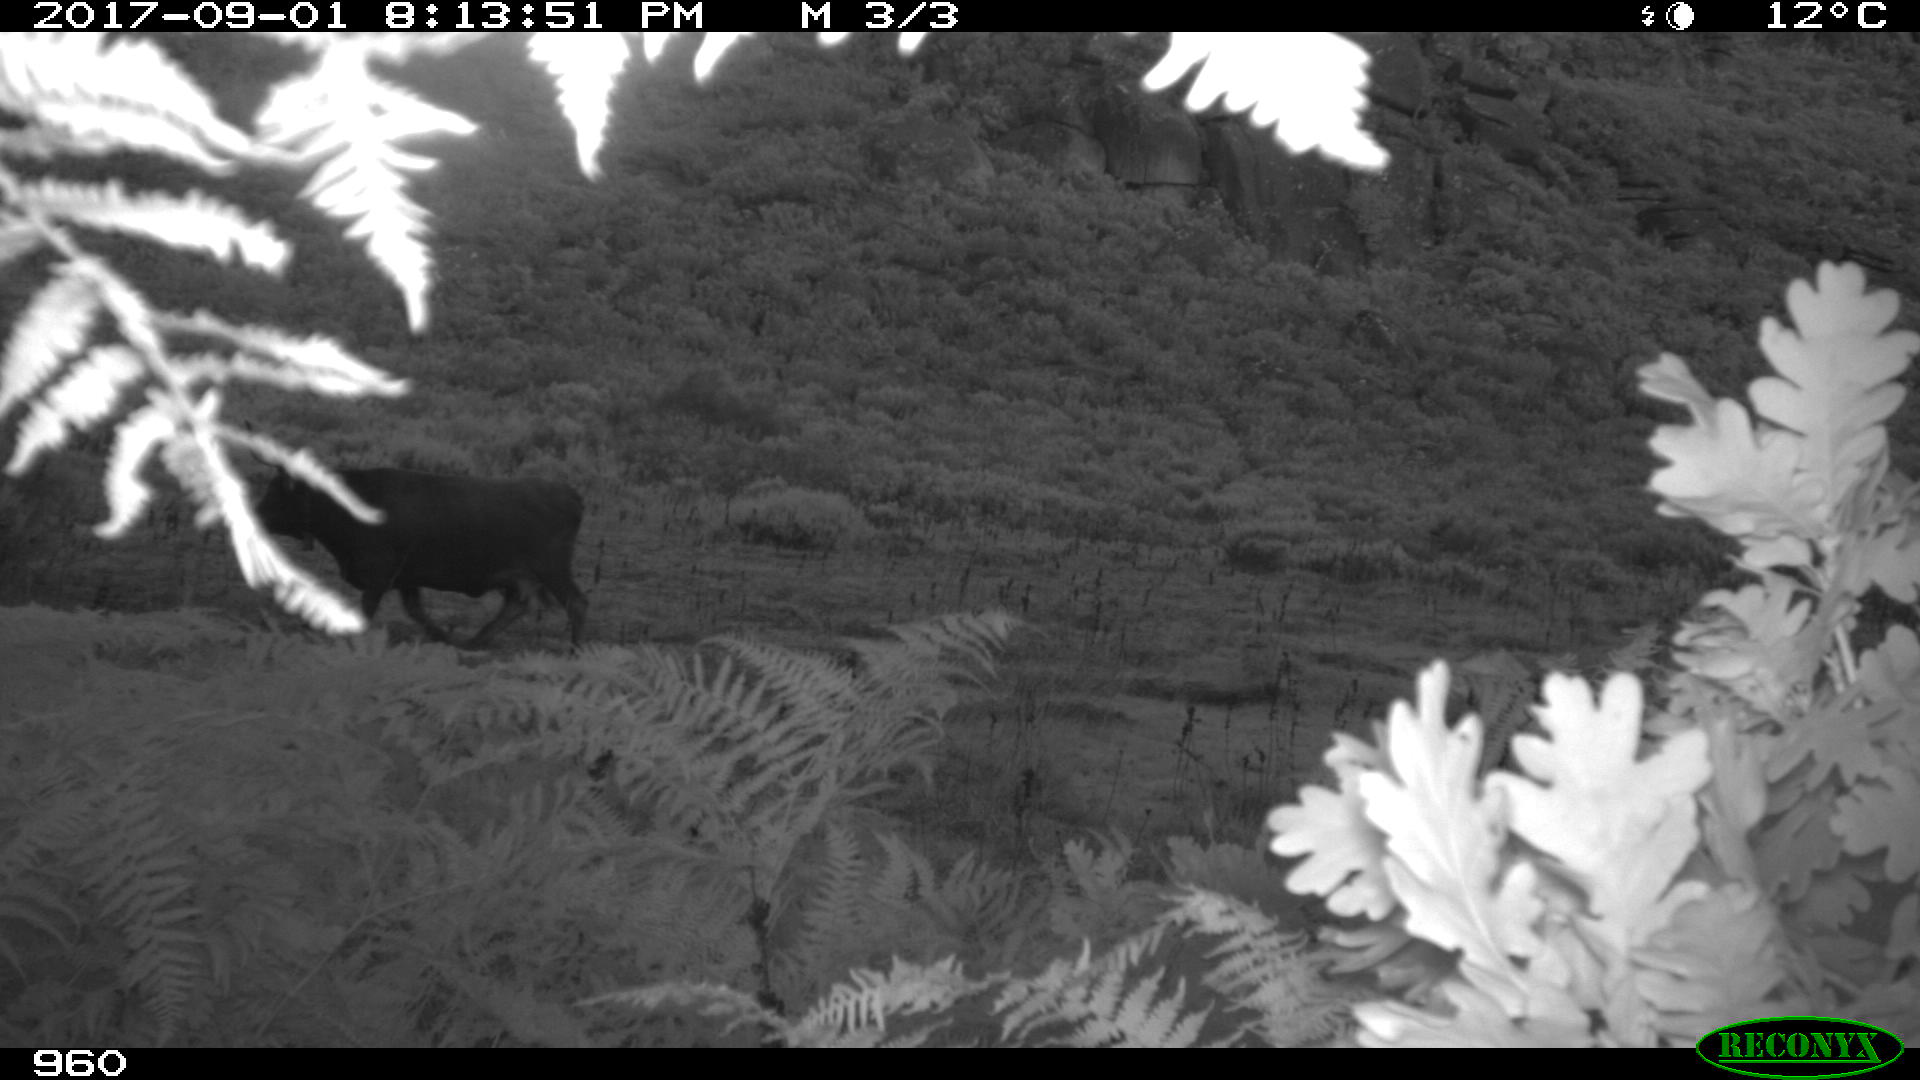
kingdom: Animalia
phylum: Chordata
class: Mammalia
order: Artiodactyla
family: Bovidae
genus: Bos
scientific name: Bos taurus
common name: Domesticated cattle
